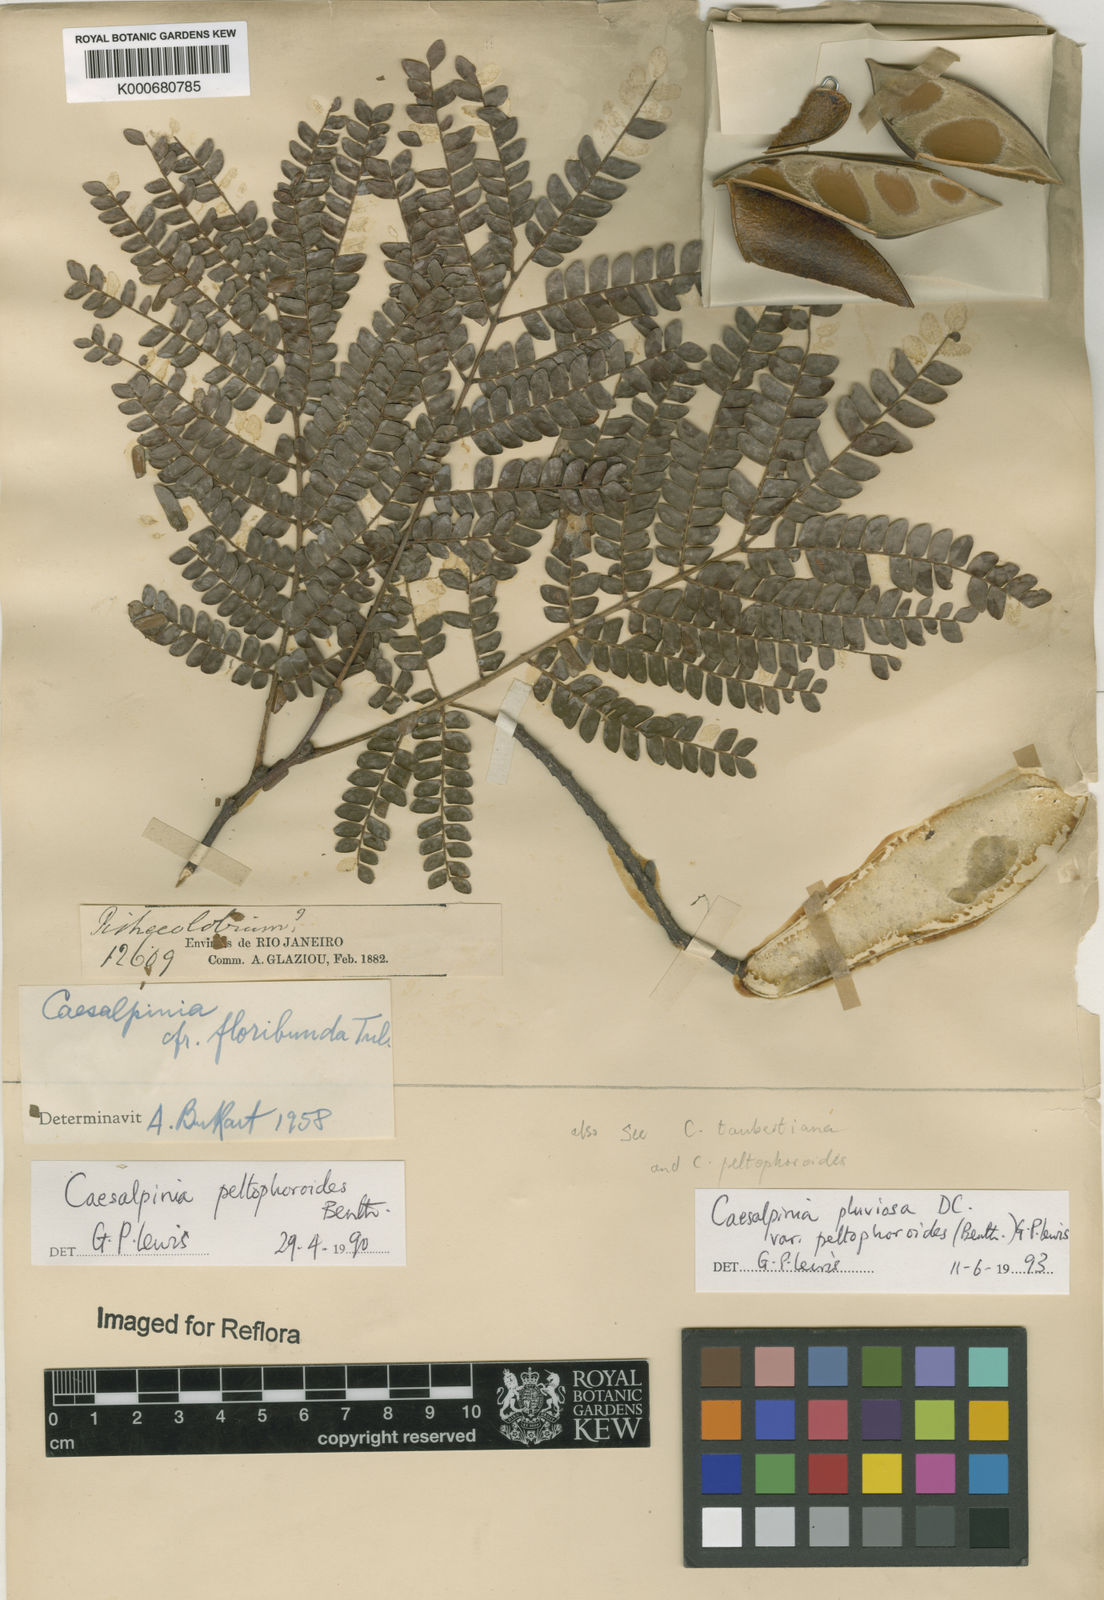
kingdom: Plantae
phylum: Tracheophyta
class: Magnoliopsida
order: Fabales
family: Fabaceae
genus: Cenostigma
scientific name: Cenostigma pluviosum
